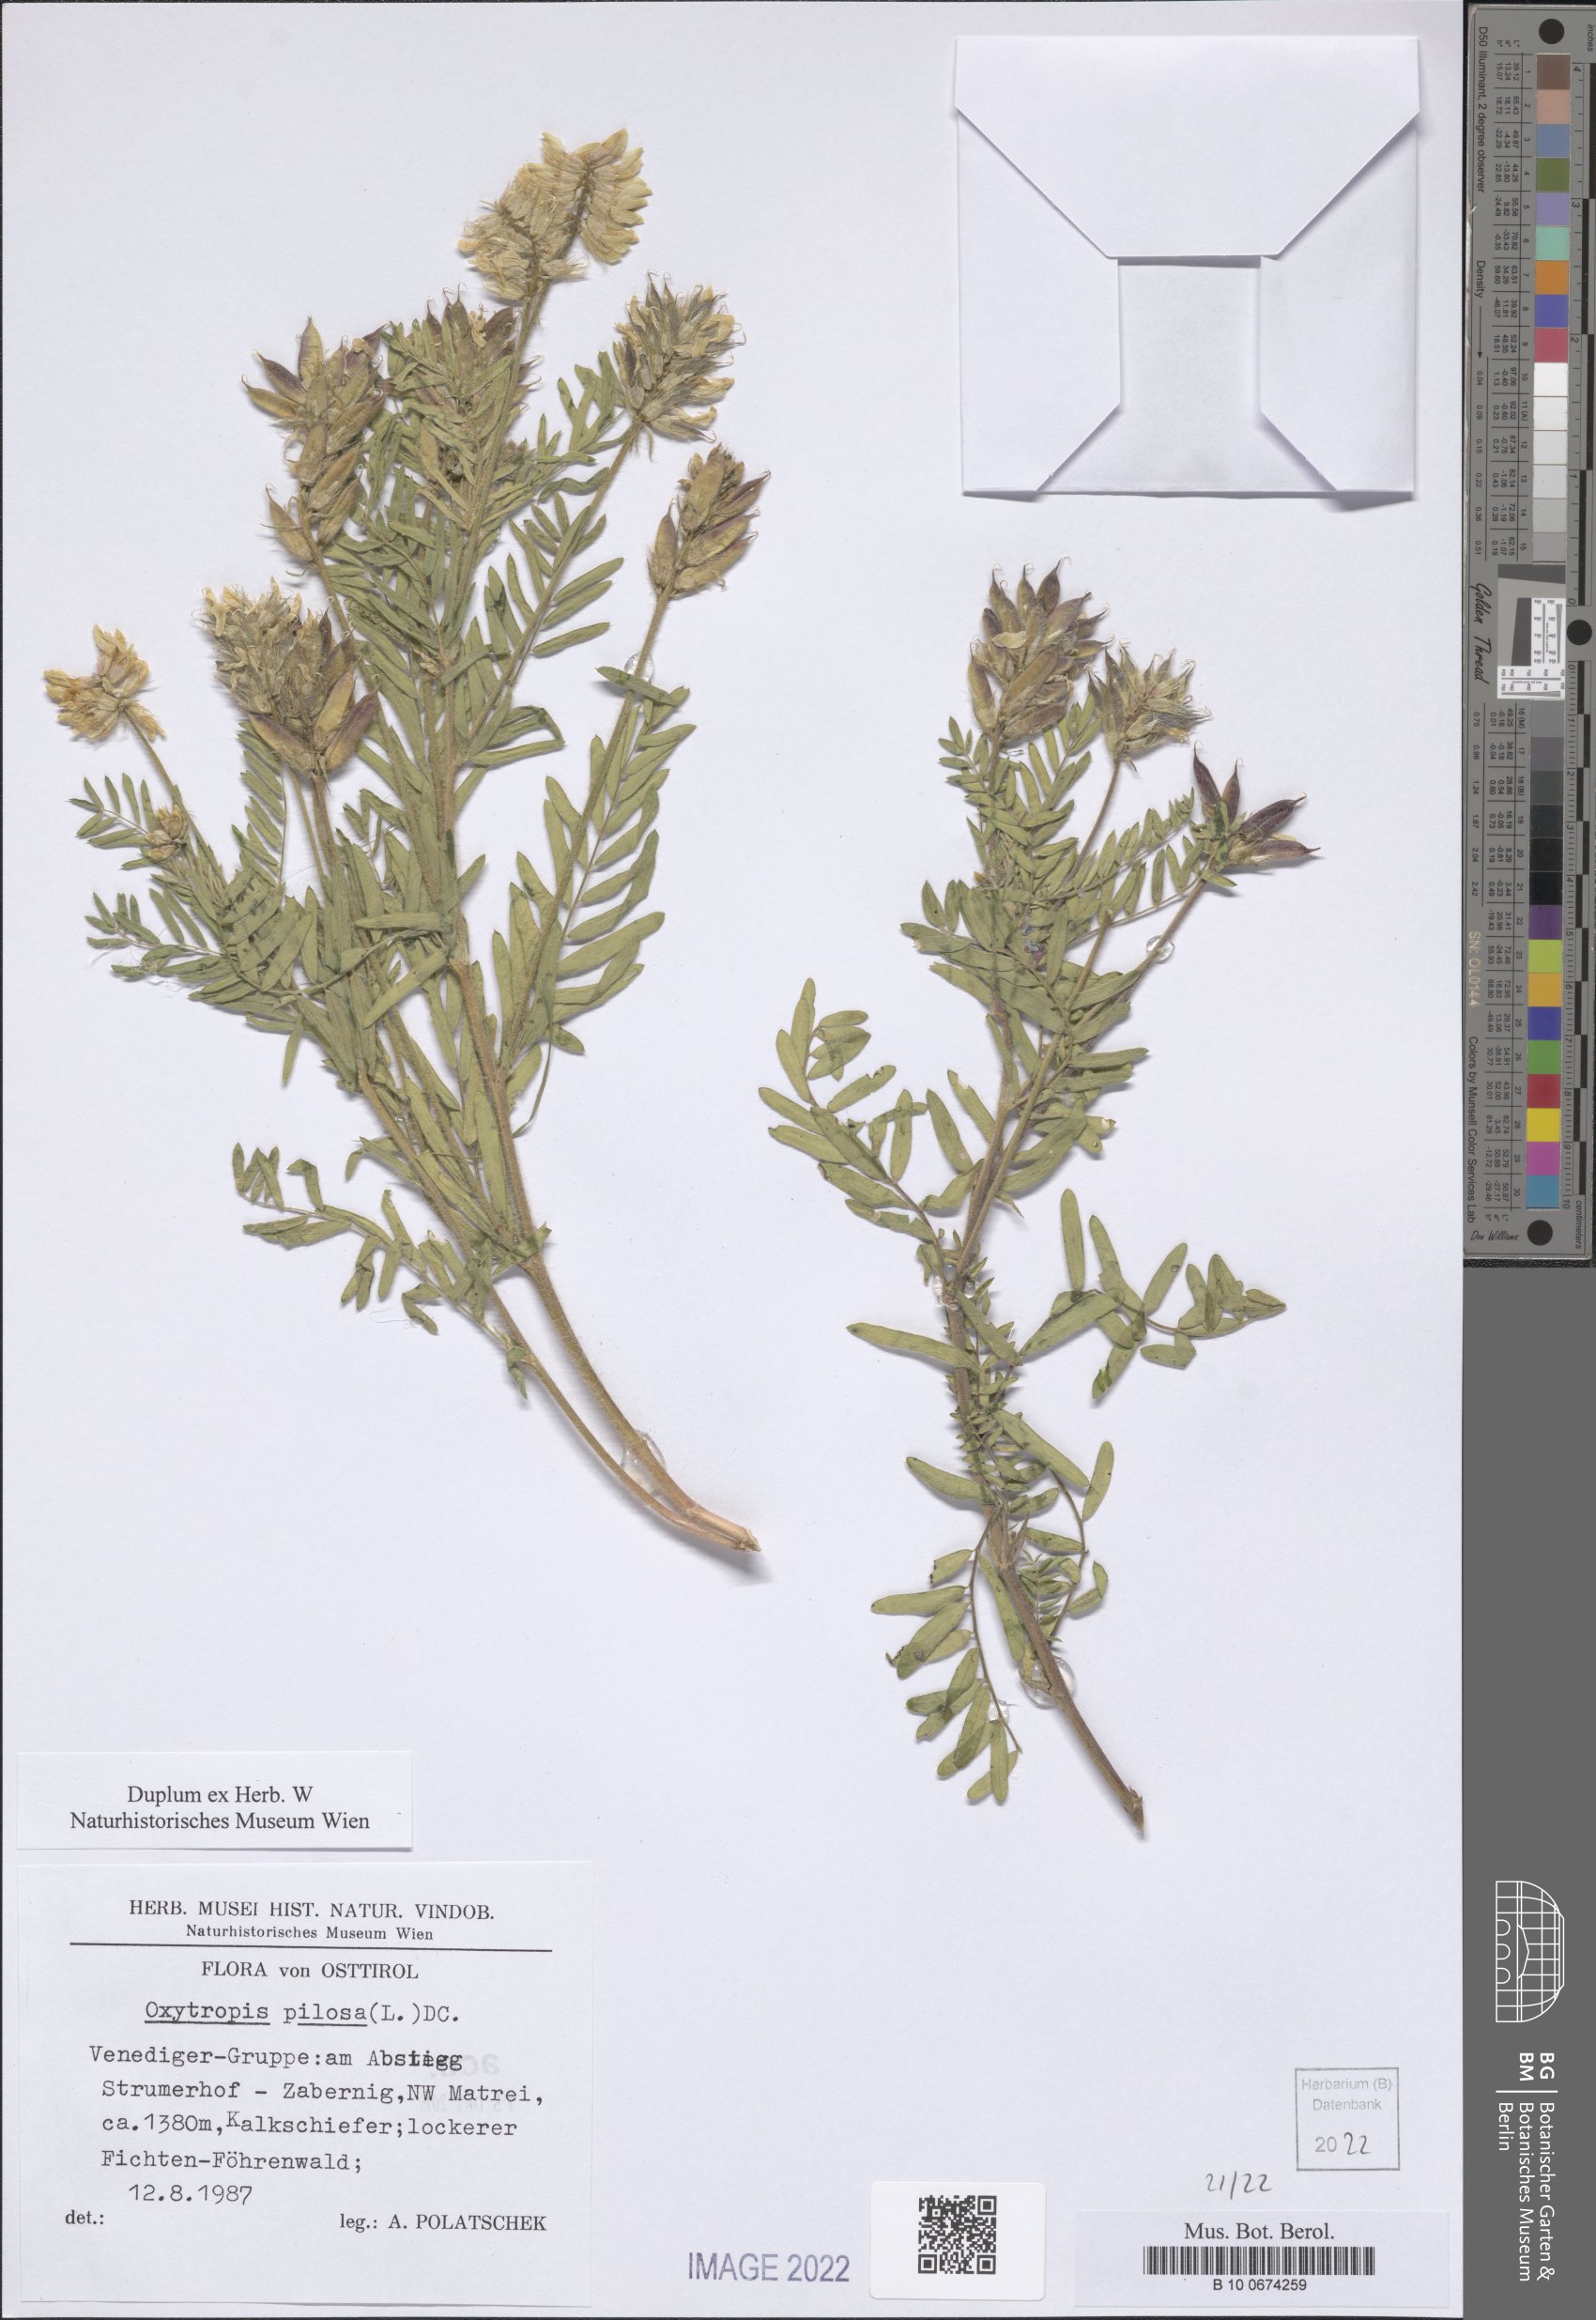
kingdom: Plantae
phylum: Tracheophyta
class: Magnoliopsida
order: Fabales
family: Fabaceae
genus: Oxytropis
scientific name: Oxytropis pilosa
